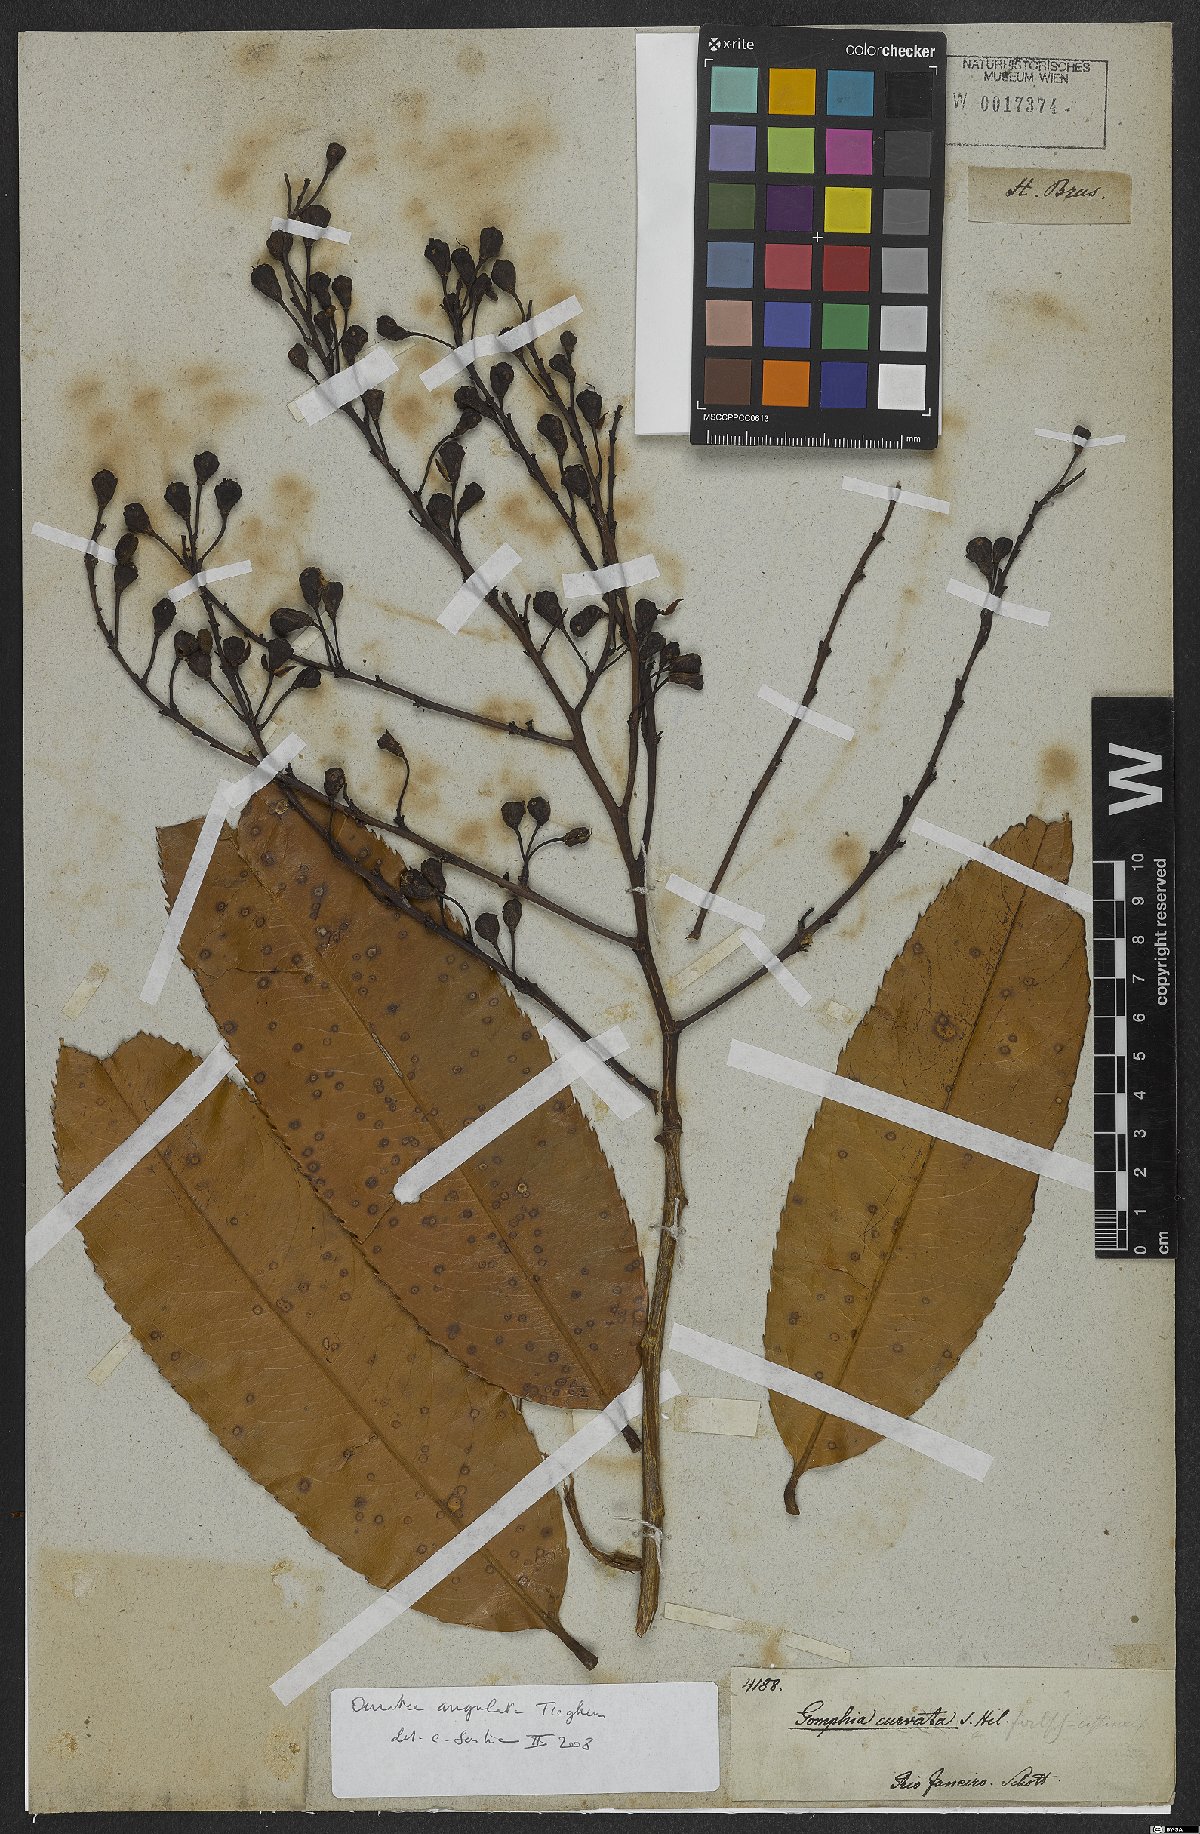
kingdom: Plantae
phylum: Tracheophyta
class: Magnoliopsida
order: Malpighiales
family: Ochnaceae
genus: Gomphia
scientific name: Gomphia obtusifolia
